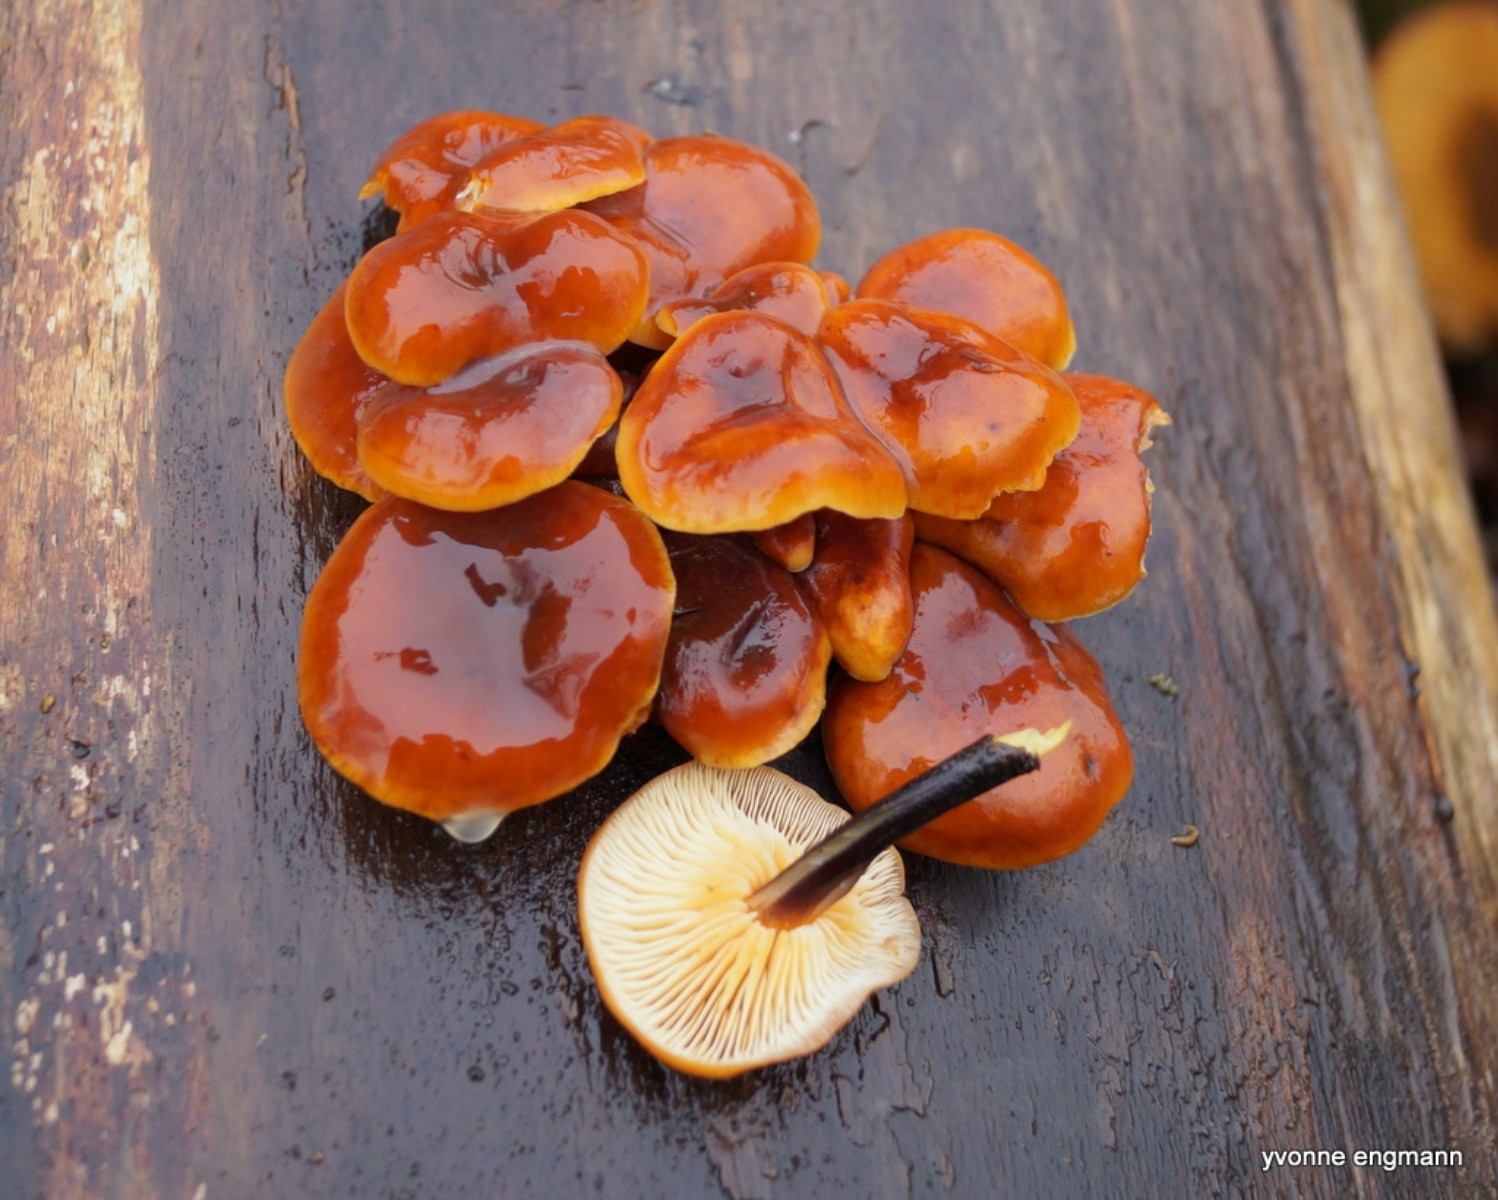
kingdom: Fungi
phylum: Basidiomycota
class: Agaricomycetes
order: Agaricales
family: Physalacriaceae
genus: Flammulina
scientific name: Flammulina velutipes
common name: gul fløjlsfod
